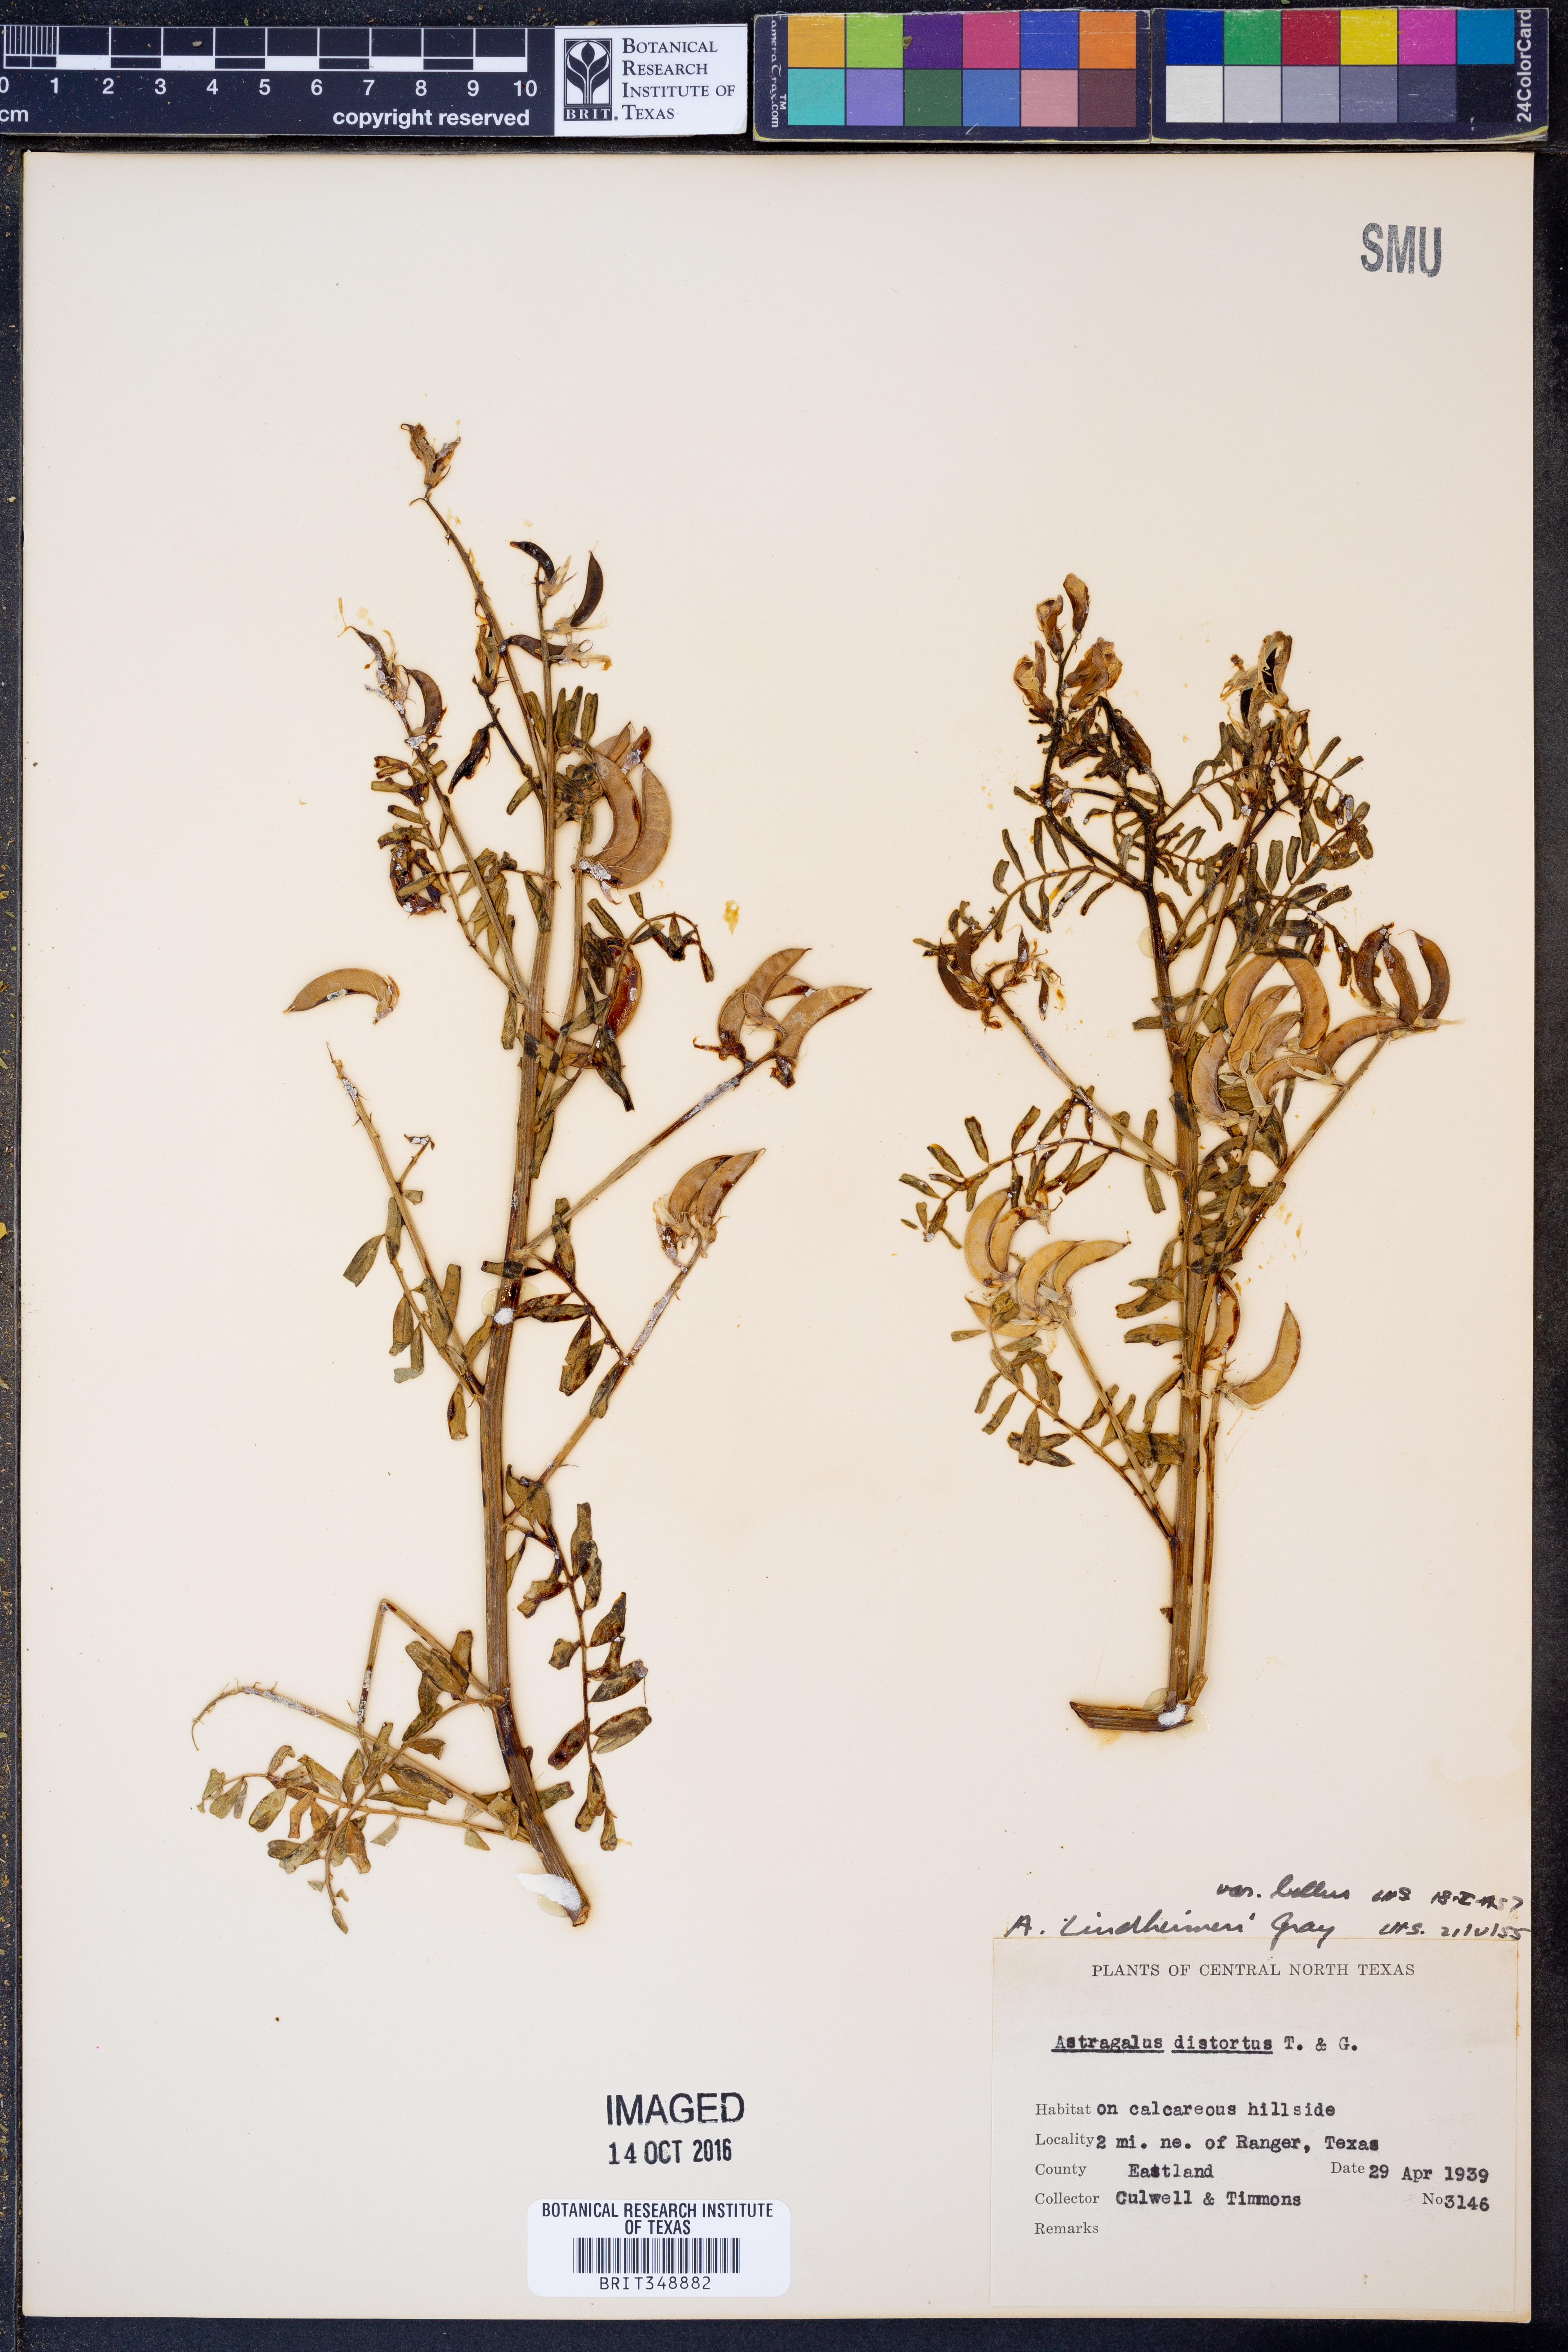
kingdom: Plantae
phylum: Tracheophyta
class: Magnoliopsida
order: Fabales
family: Fabaceae
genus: Astragalus
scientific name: Astragalus lindheimeri
